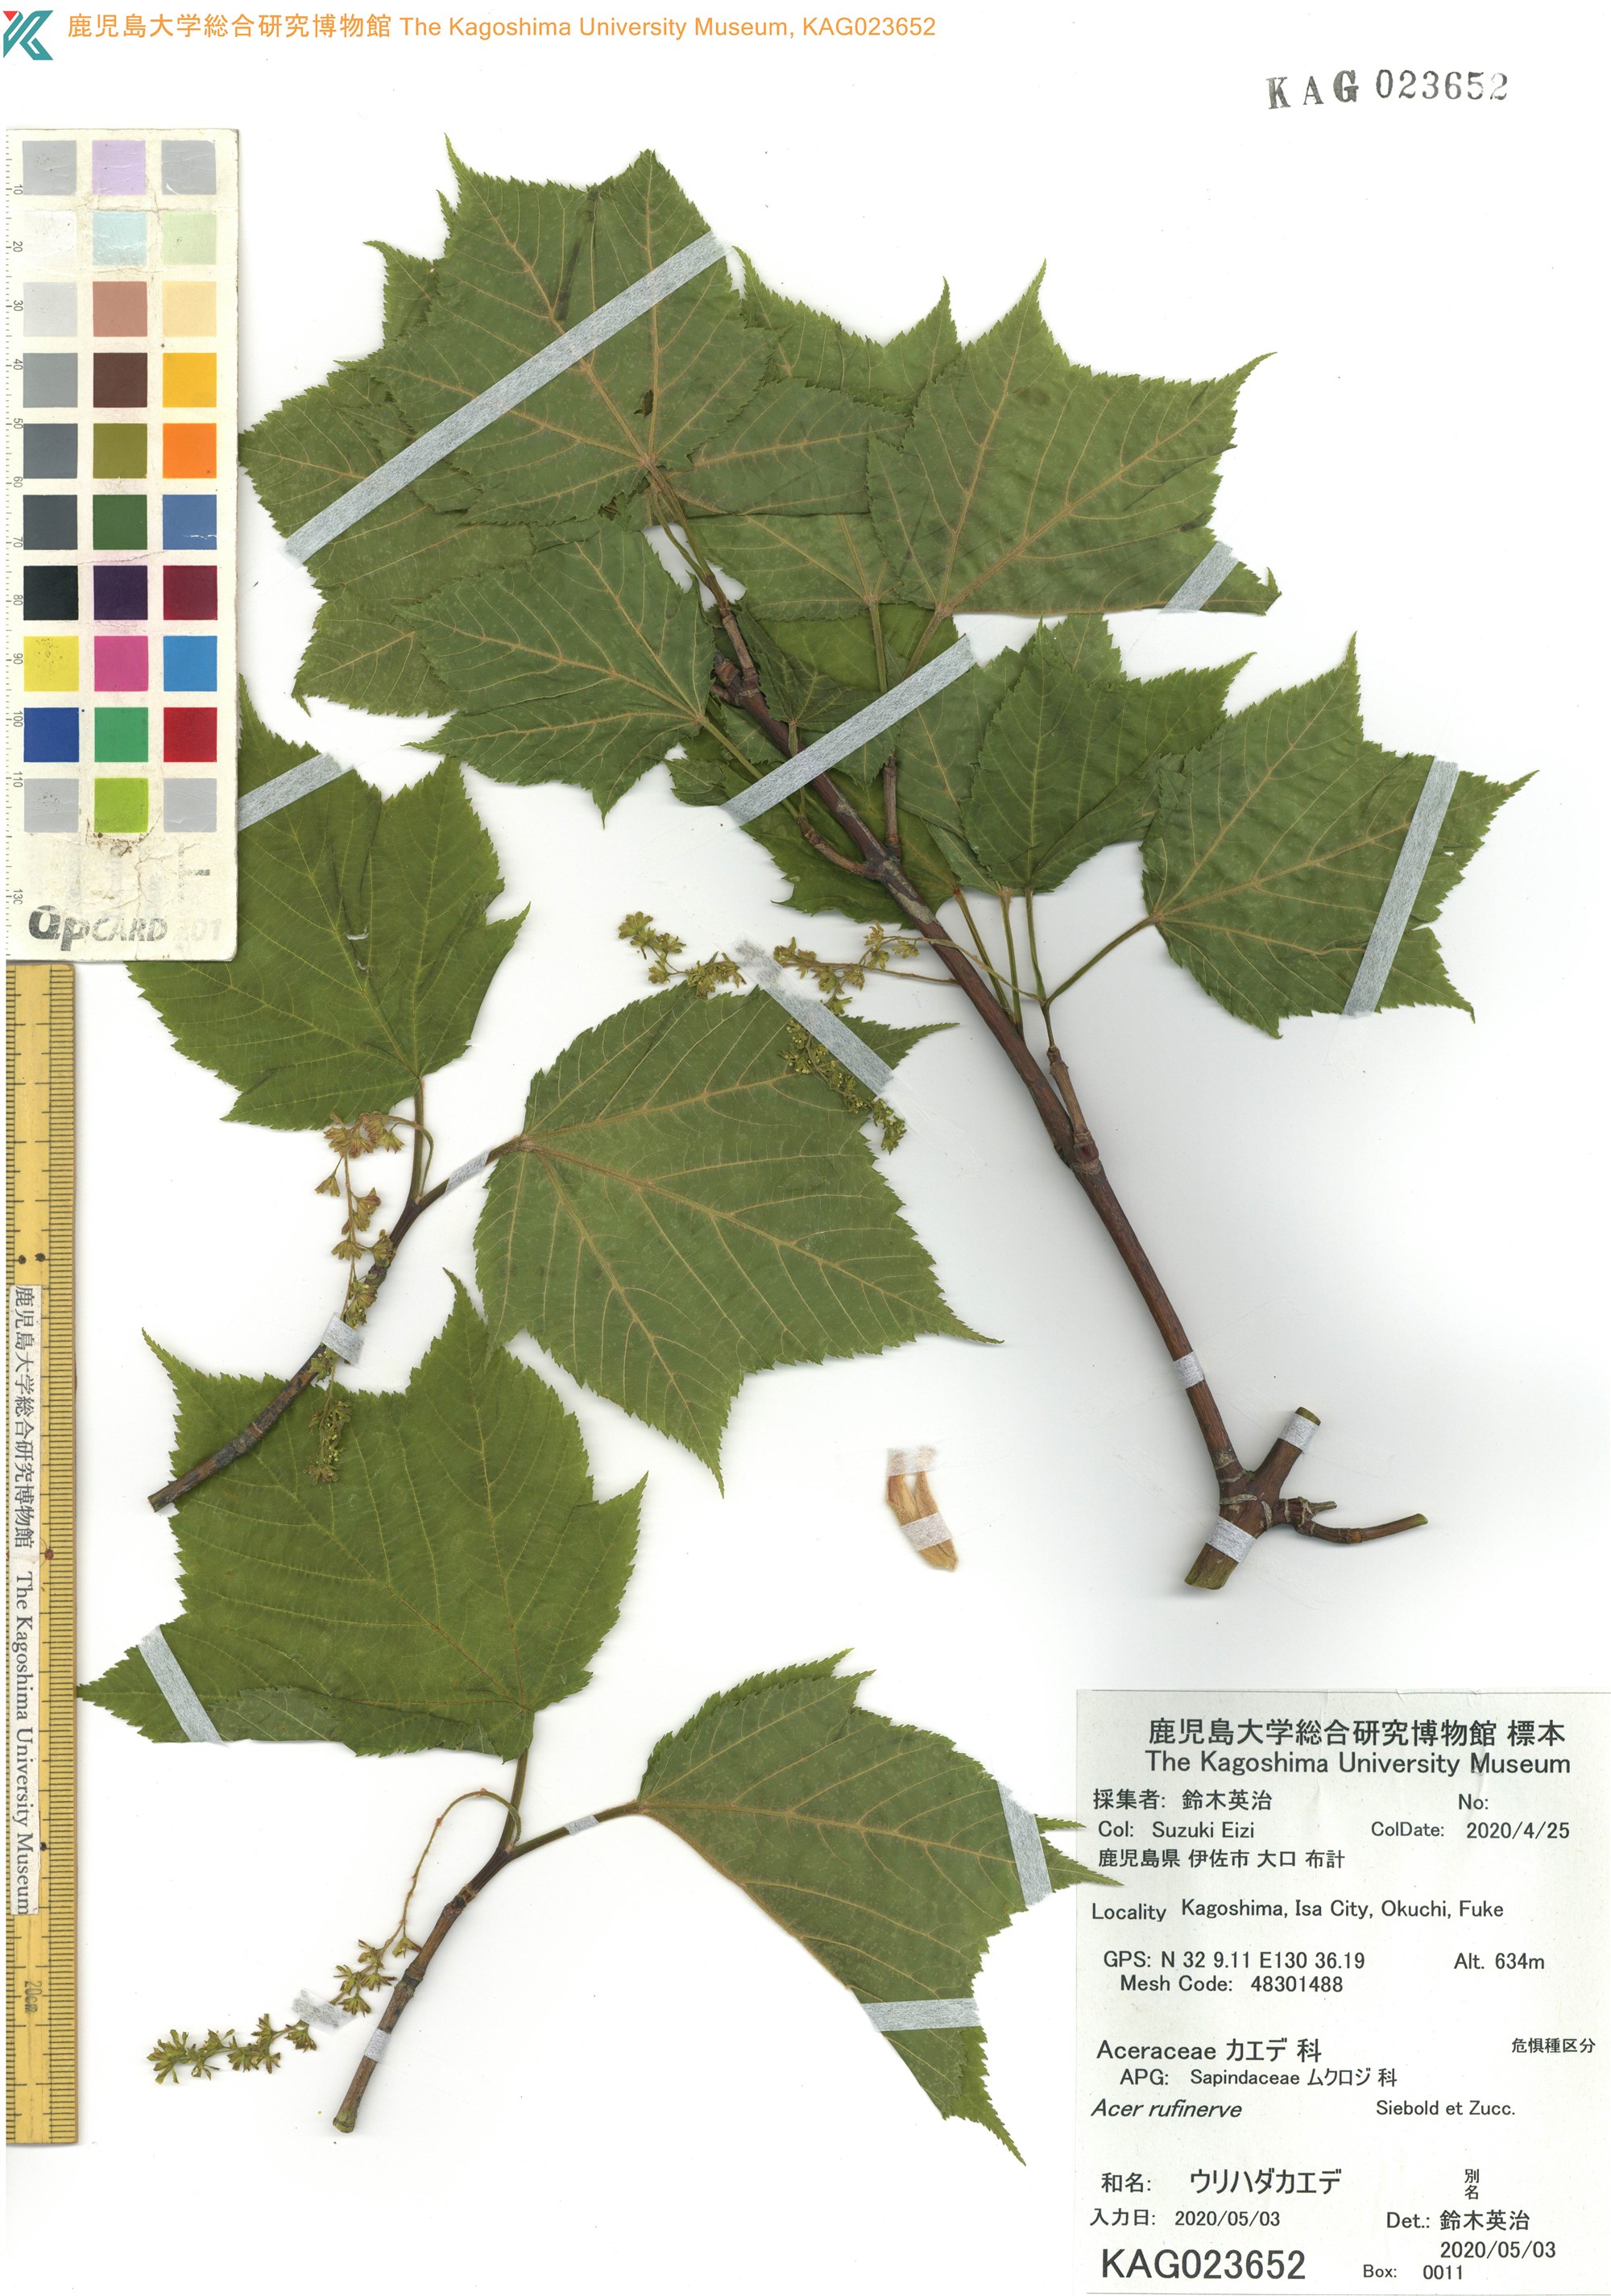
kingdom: Plantae
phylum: Tracheophyta
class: Magnoliopsida
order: Sapindales
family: Sapindaceae
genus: Acer
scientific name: Acer rufinerve
